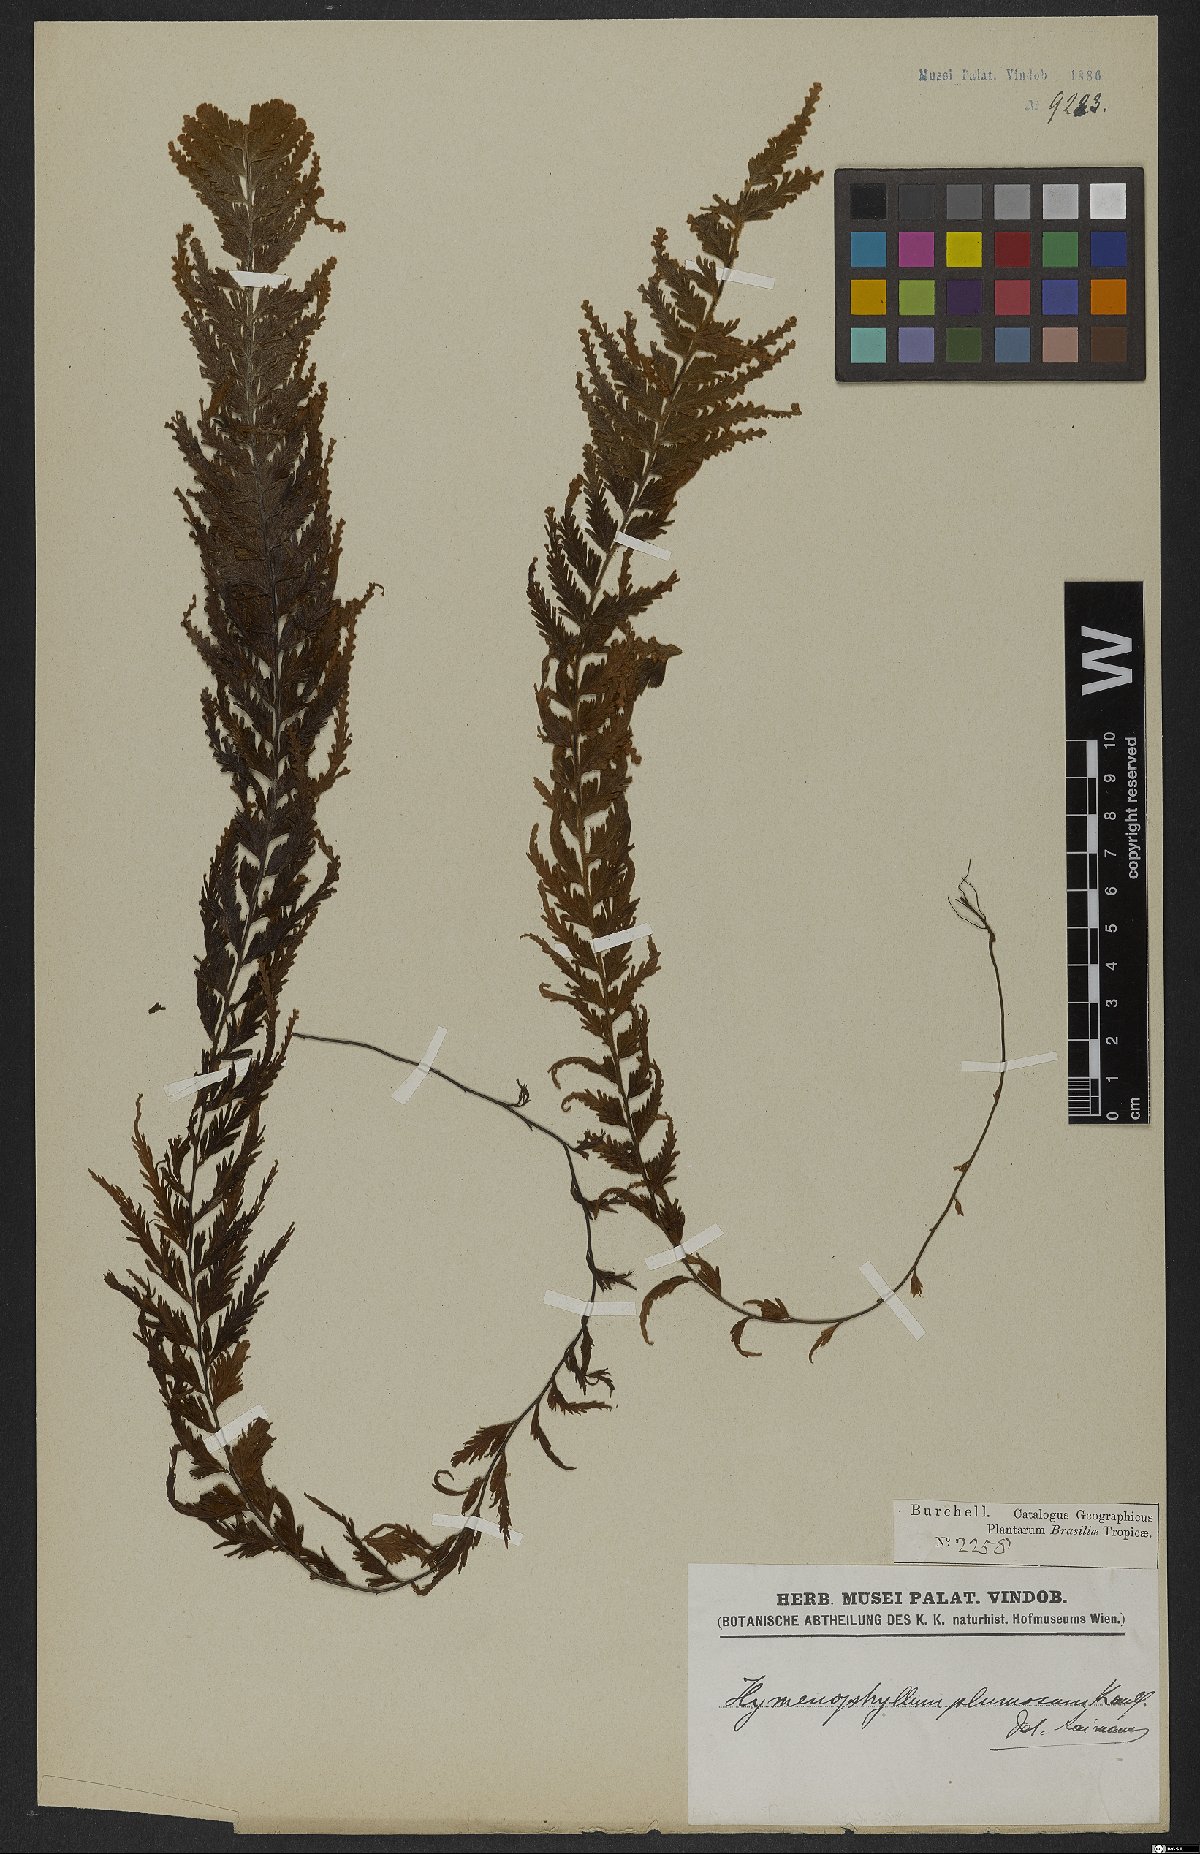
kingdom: Plantae
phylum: Tracheophyta
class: Polypodiopsida
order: Hymenophyllales
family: Hymenophyllaceae
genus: Hymenophyllum
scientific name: Hymenophyllum plumosum
